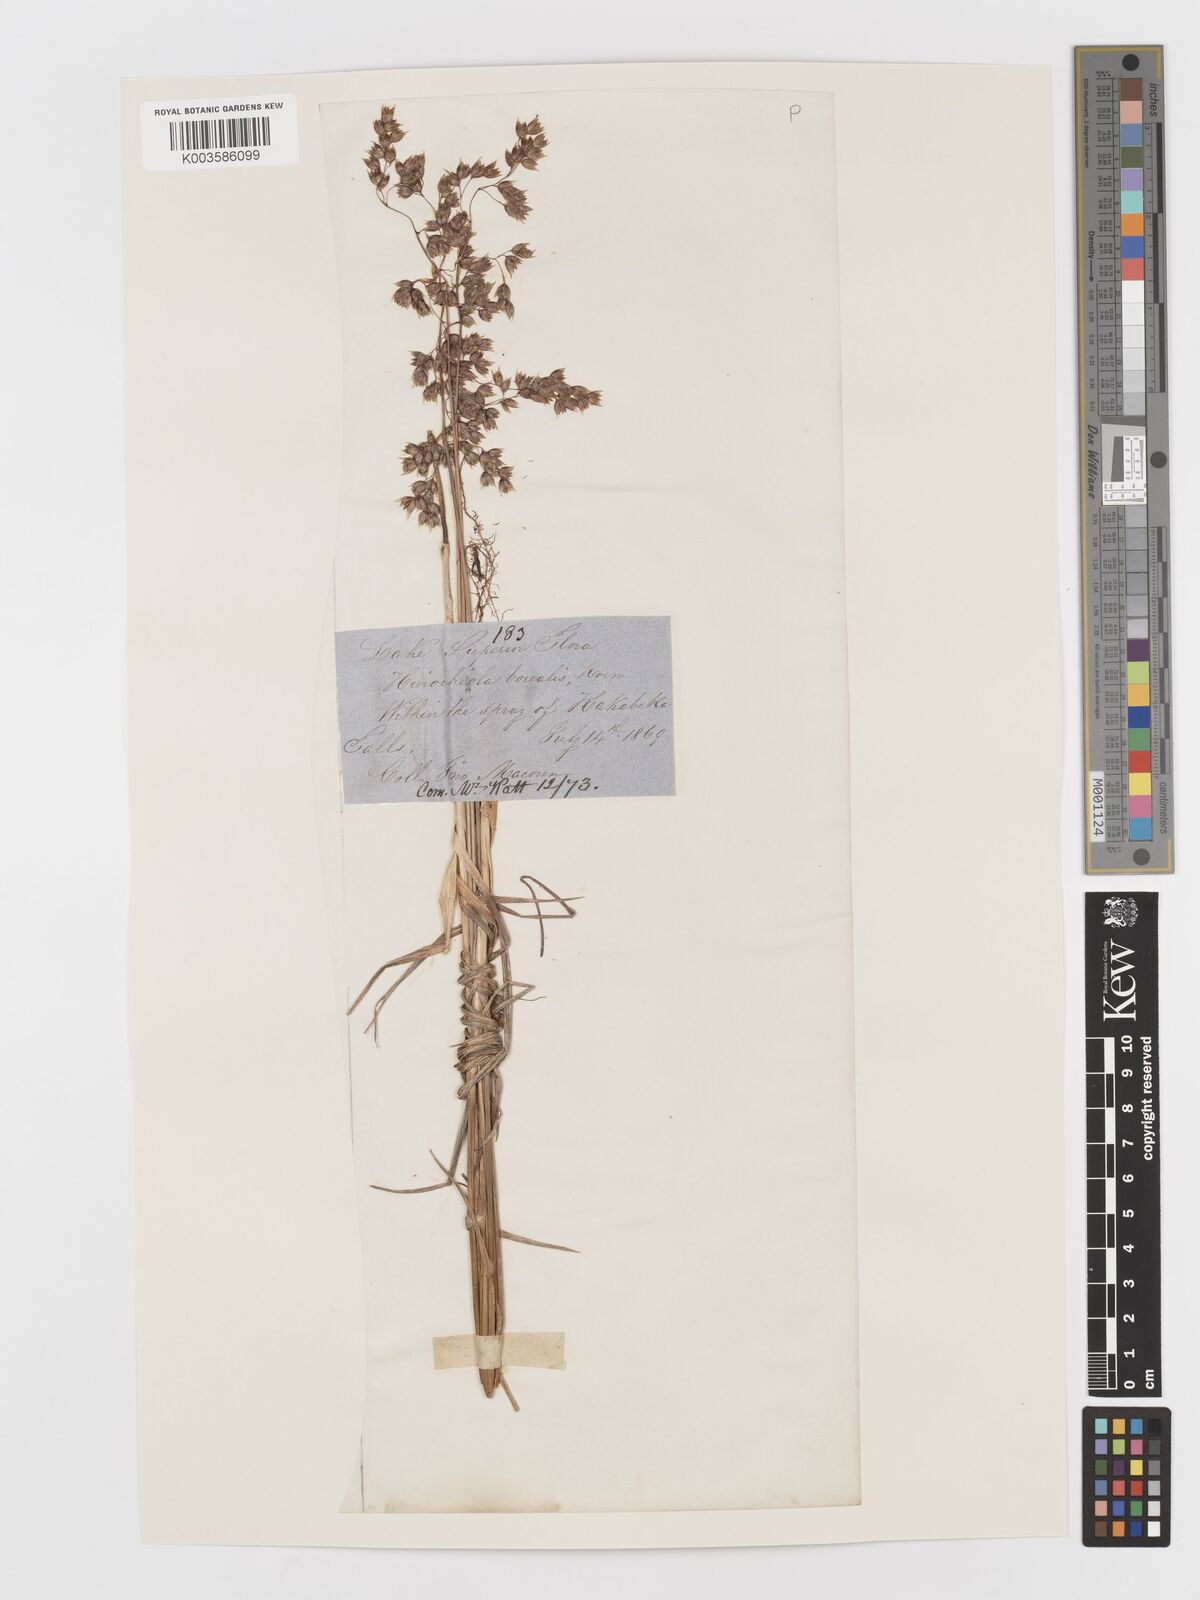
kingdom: Plantae
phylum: Tracheophyta
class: Liliopsida
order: Poales
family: Poaceae
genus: Anthoxanthum
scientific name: Anthoxanthum nitens
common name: Holy grass
